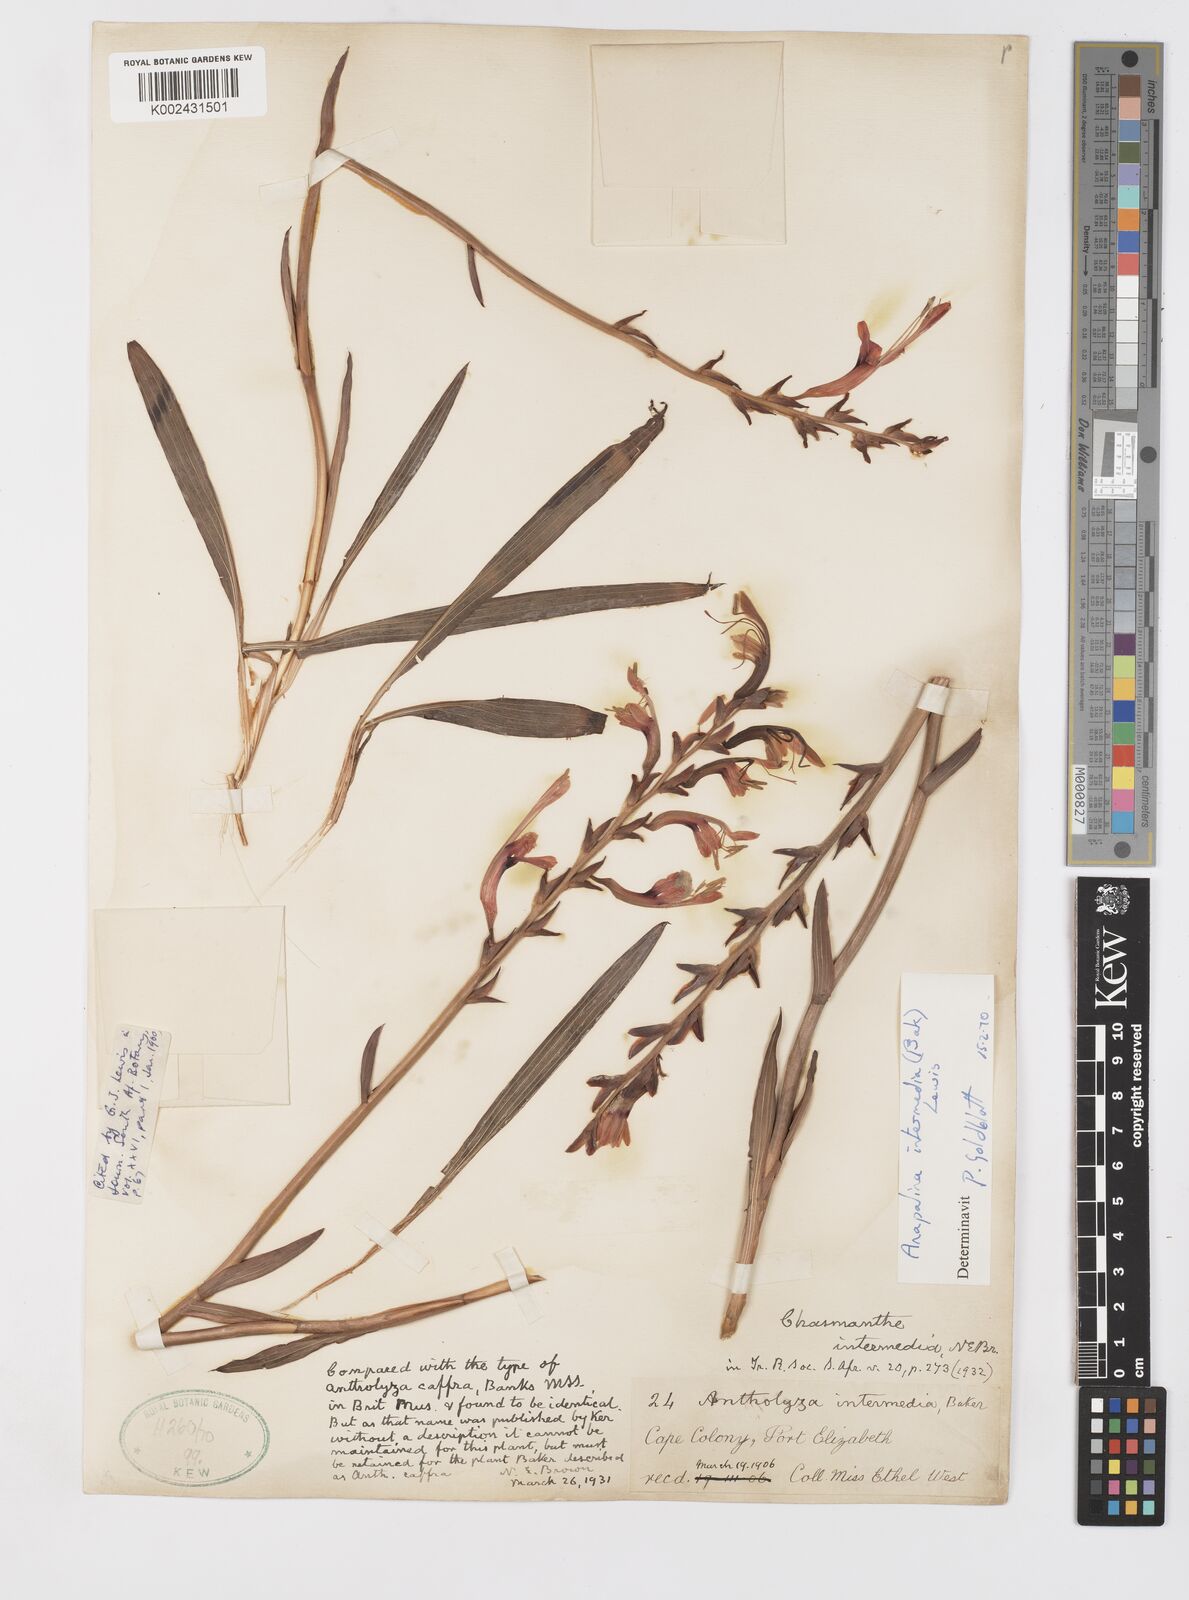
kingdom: Plantae
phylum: Tracheophyta
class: Liliopsida
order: Asparagales
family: Iridaceae
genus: Tritoniopsis
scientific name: Tritoniopsis intermedia
